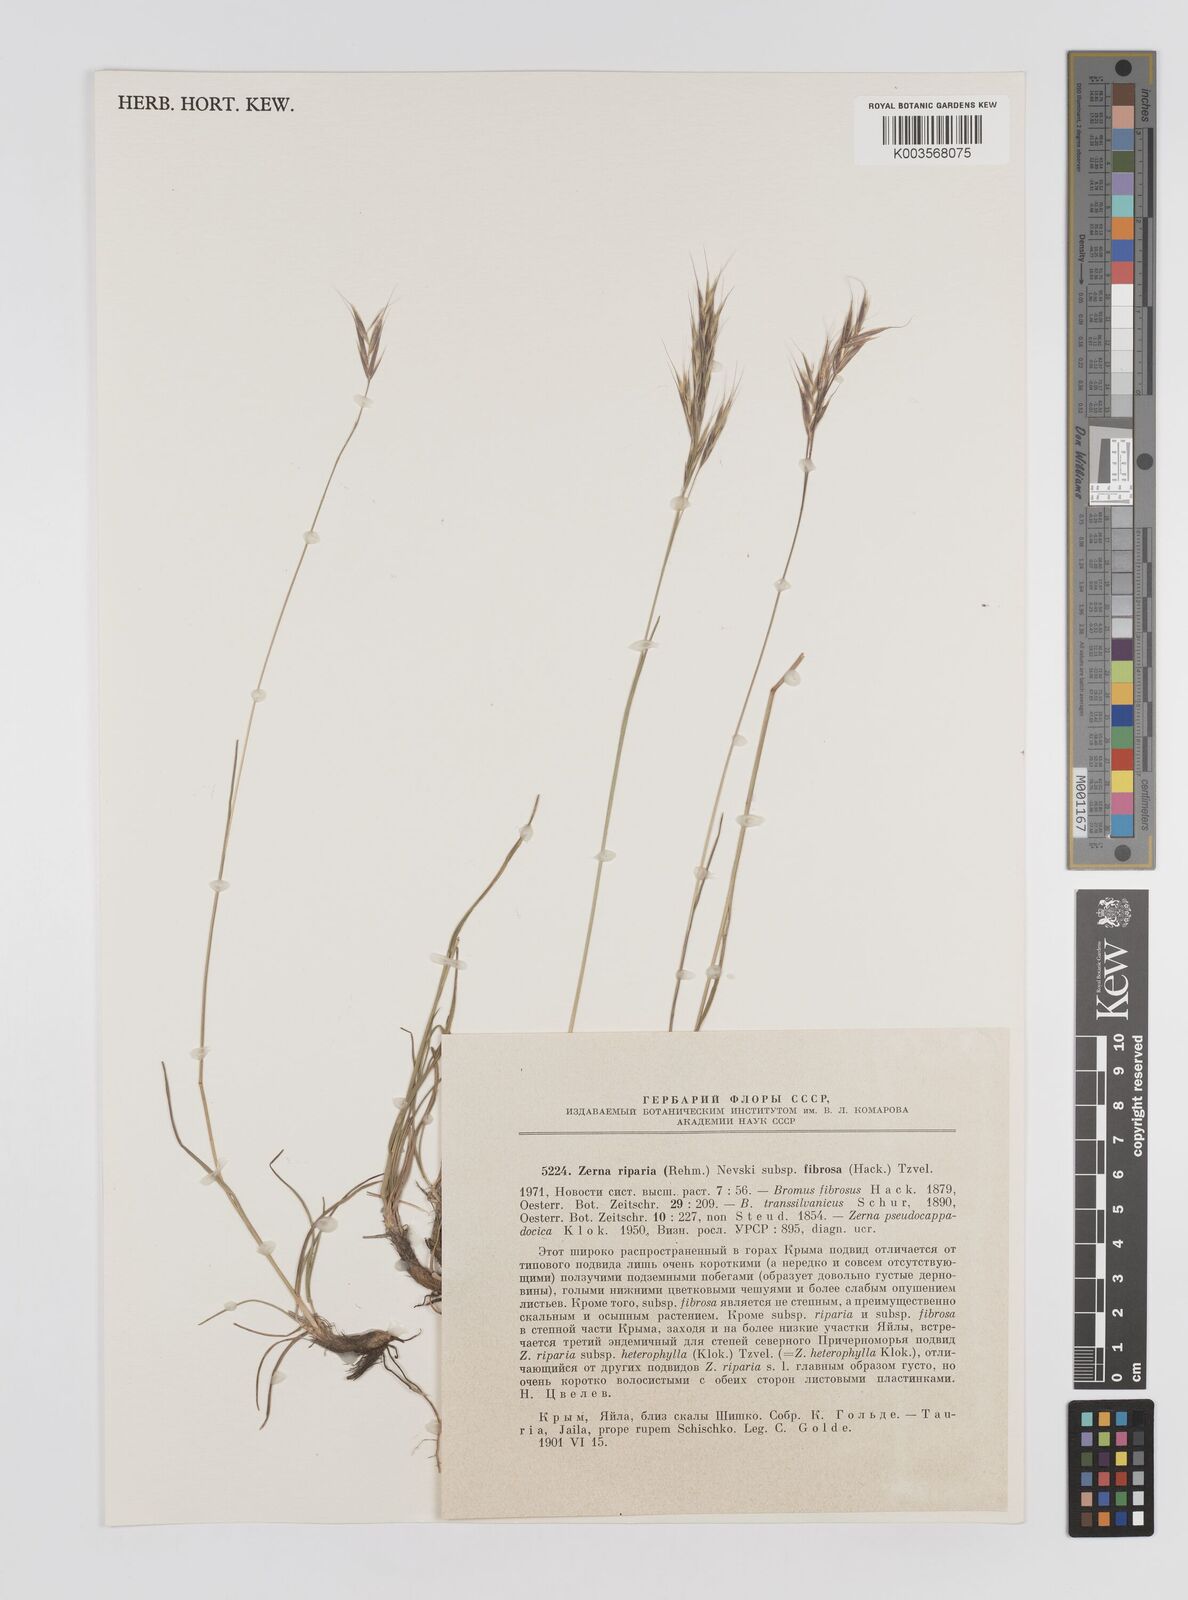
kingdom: Plantae
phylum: Tracheophyta
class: Liliopsida
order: Poales
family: Poaceae
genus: Bromus
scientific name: Bromus riparius
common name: Meadow brome
